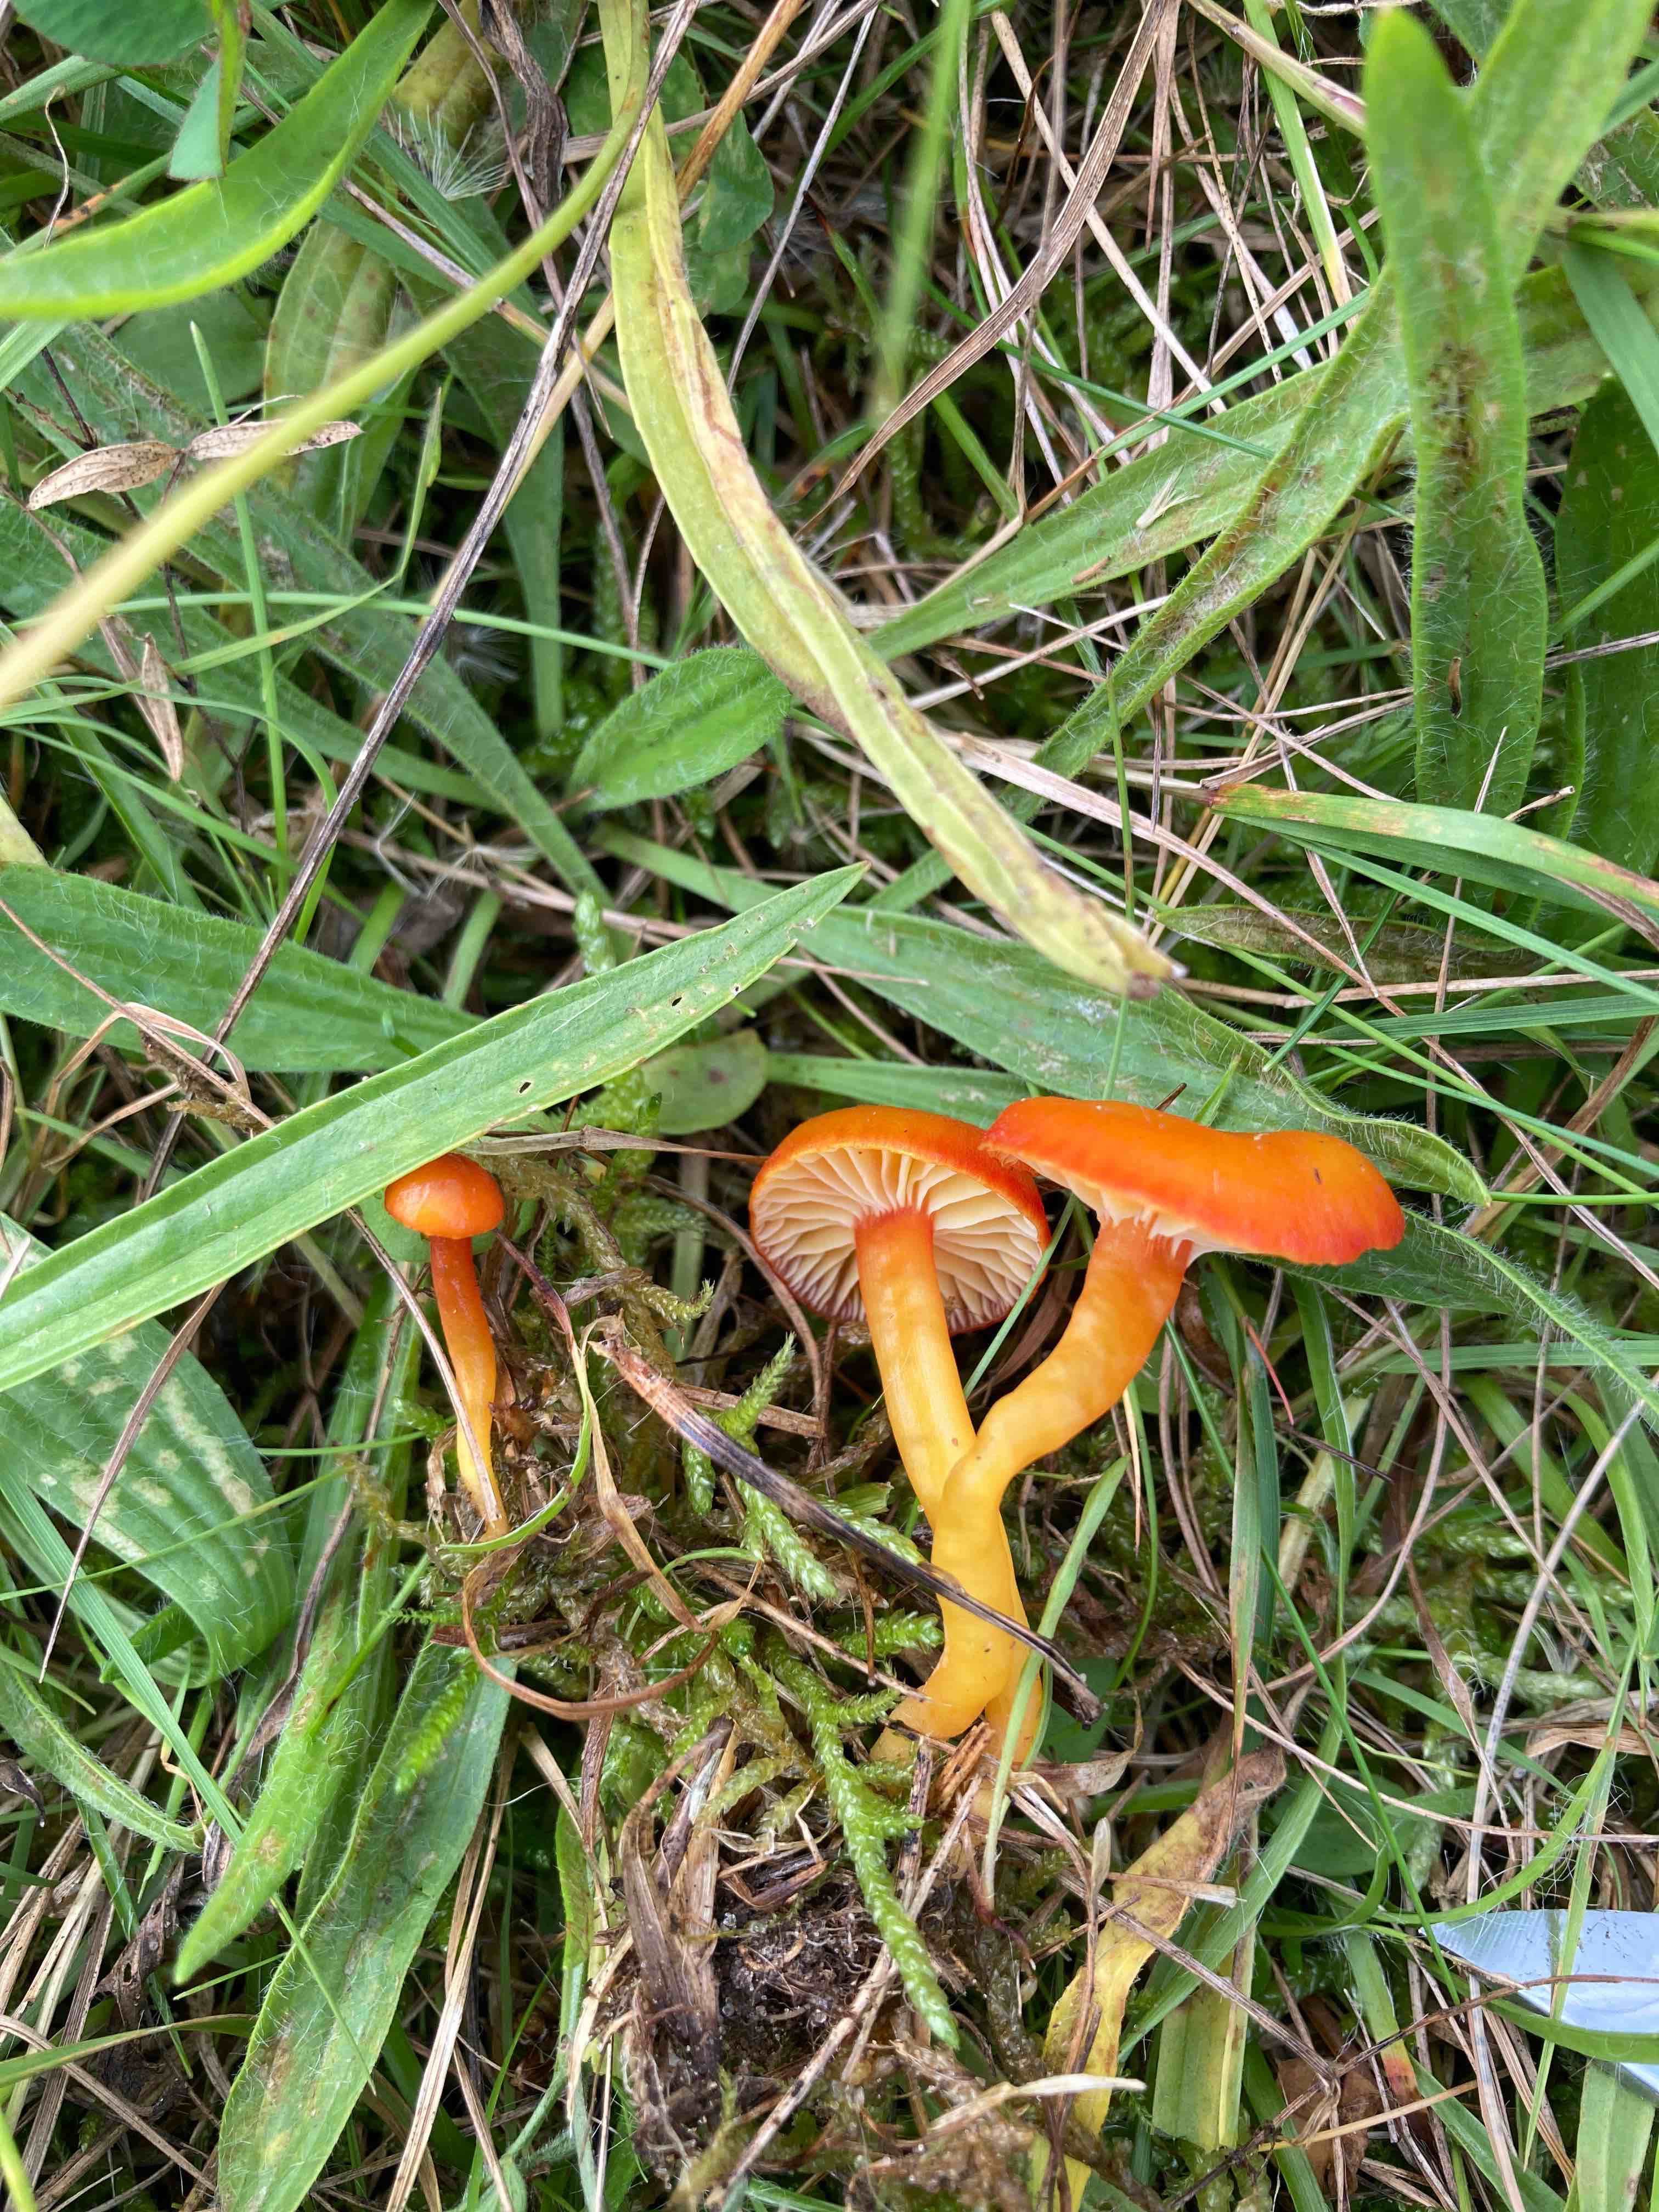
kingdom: Fungi
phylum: Basidiomycota
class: Agaricomycetes
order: Agaricales
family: Hygrophoraceae
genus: Hygrocybe
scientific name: Hygrocybe insipida
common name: liden vokshat
